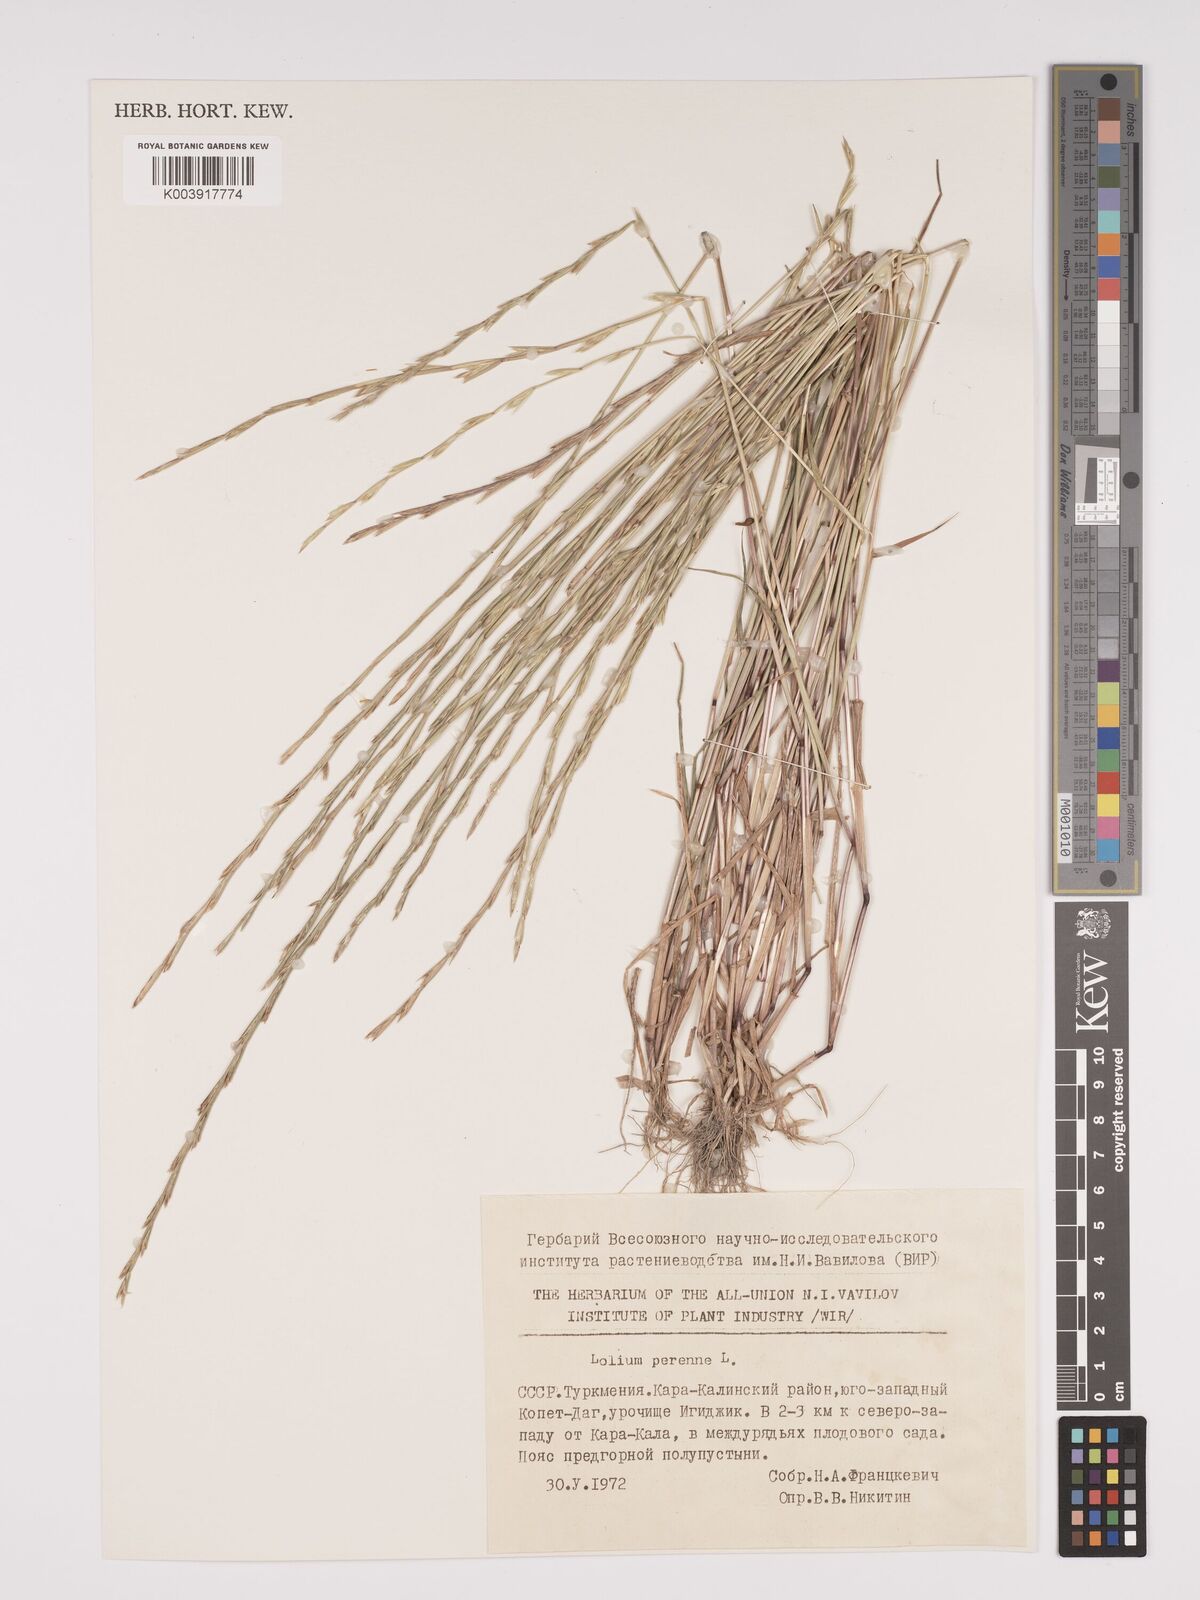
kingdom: Plantae
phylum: Tracheophyta
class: Liliopsida
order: Poales
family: Poaceae
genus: Lolium
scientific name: Lolium perenne
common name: Perennial ryegrass
